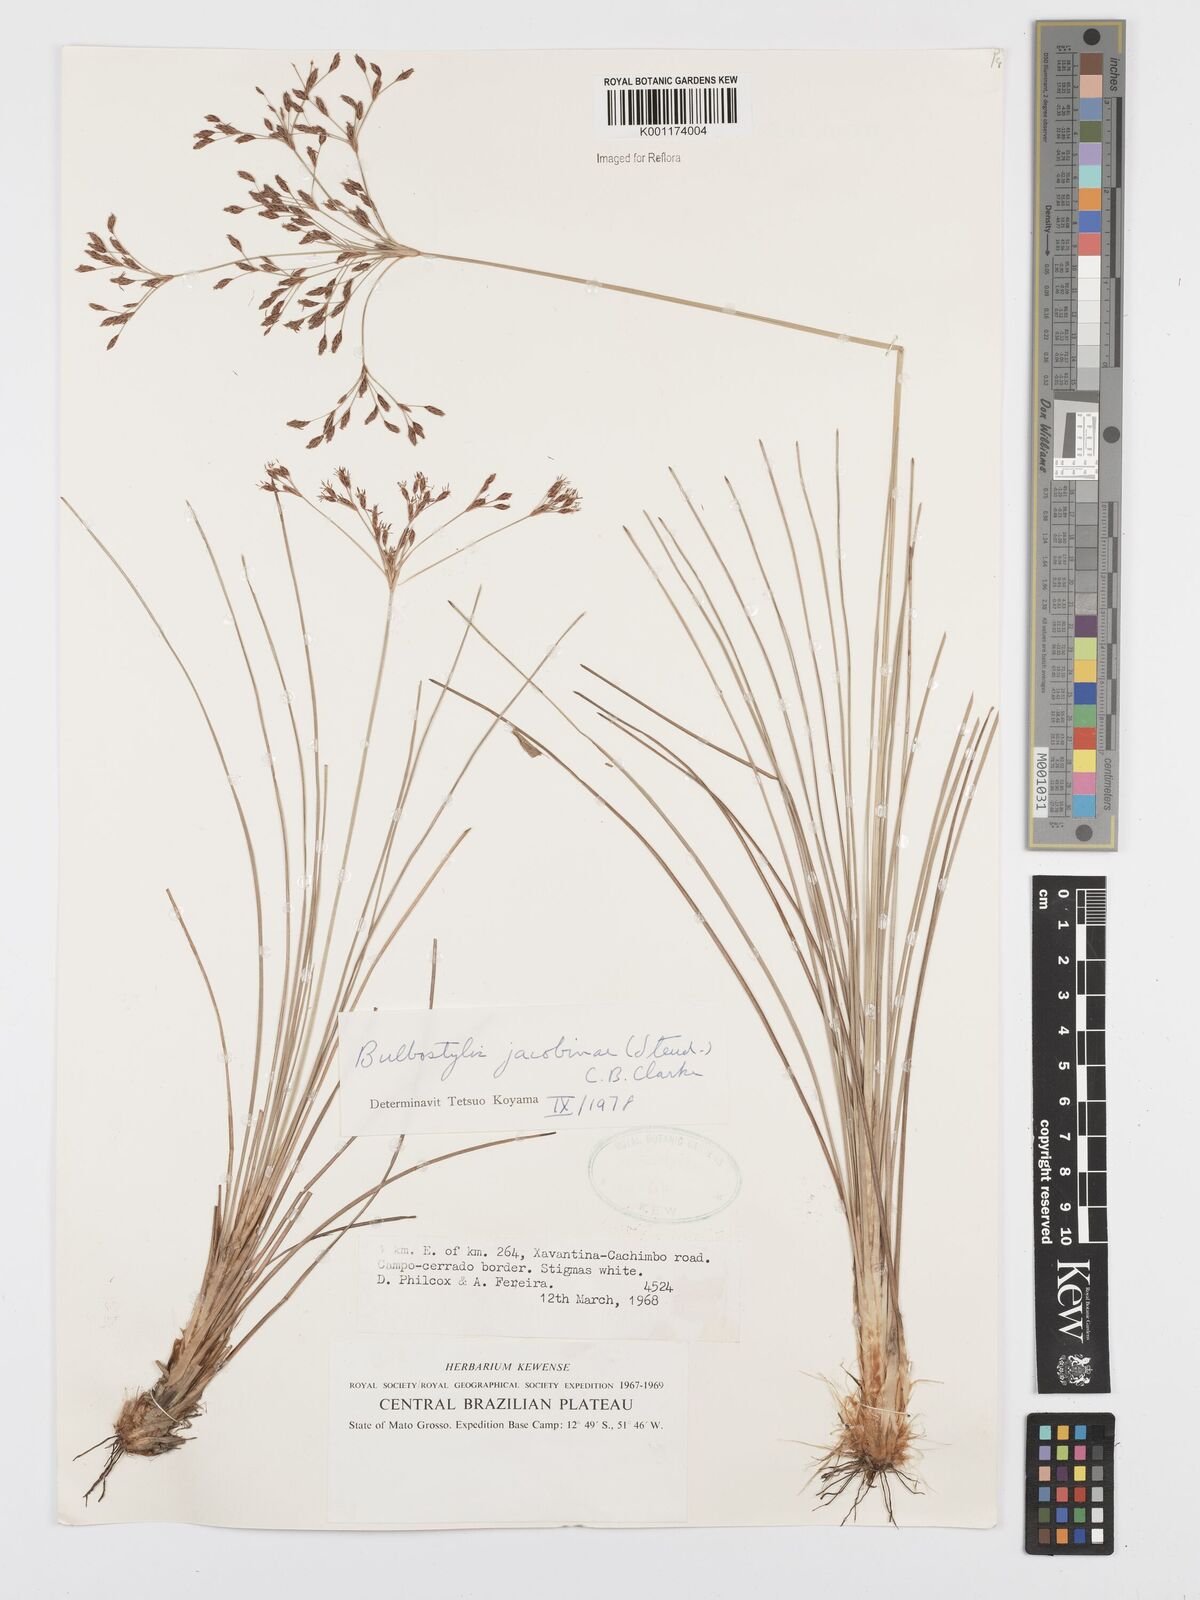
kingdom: Plantae
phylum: Tracheophyta
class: Liliopsida
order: Poales
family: Cyperaceae
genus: Bulbostylis
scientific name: Bulbostylis jacobinae
